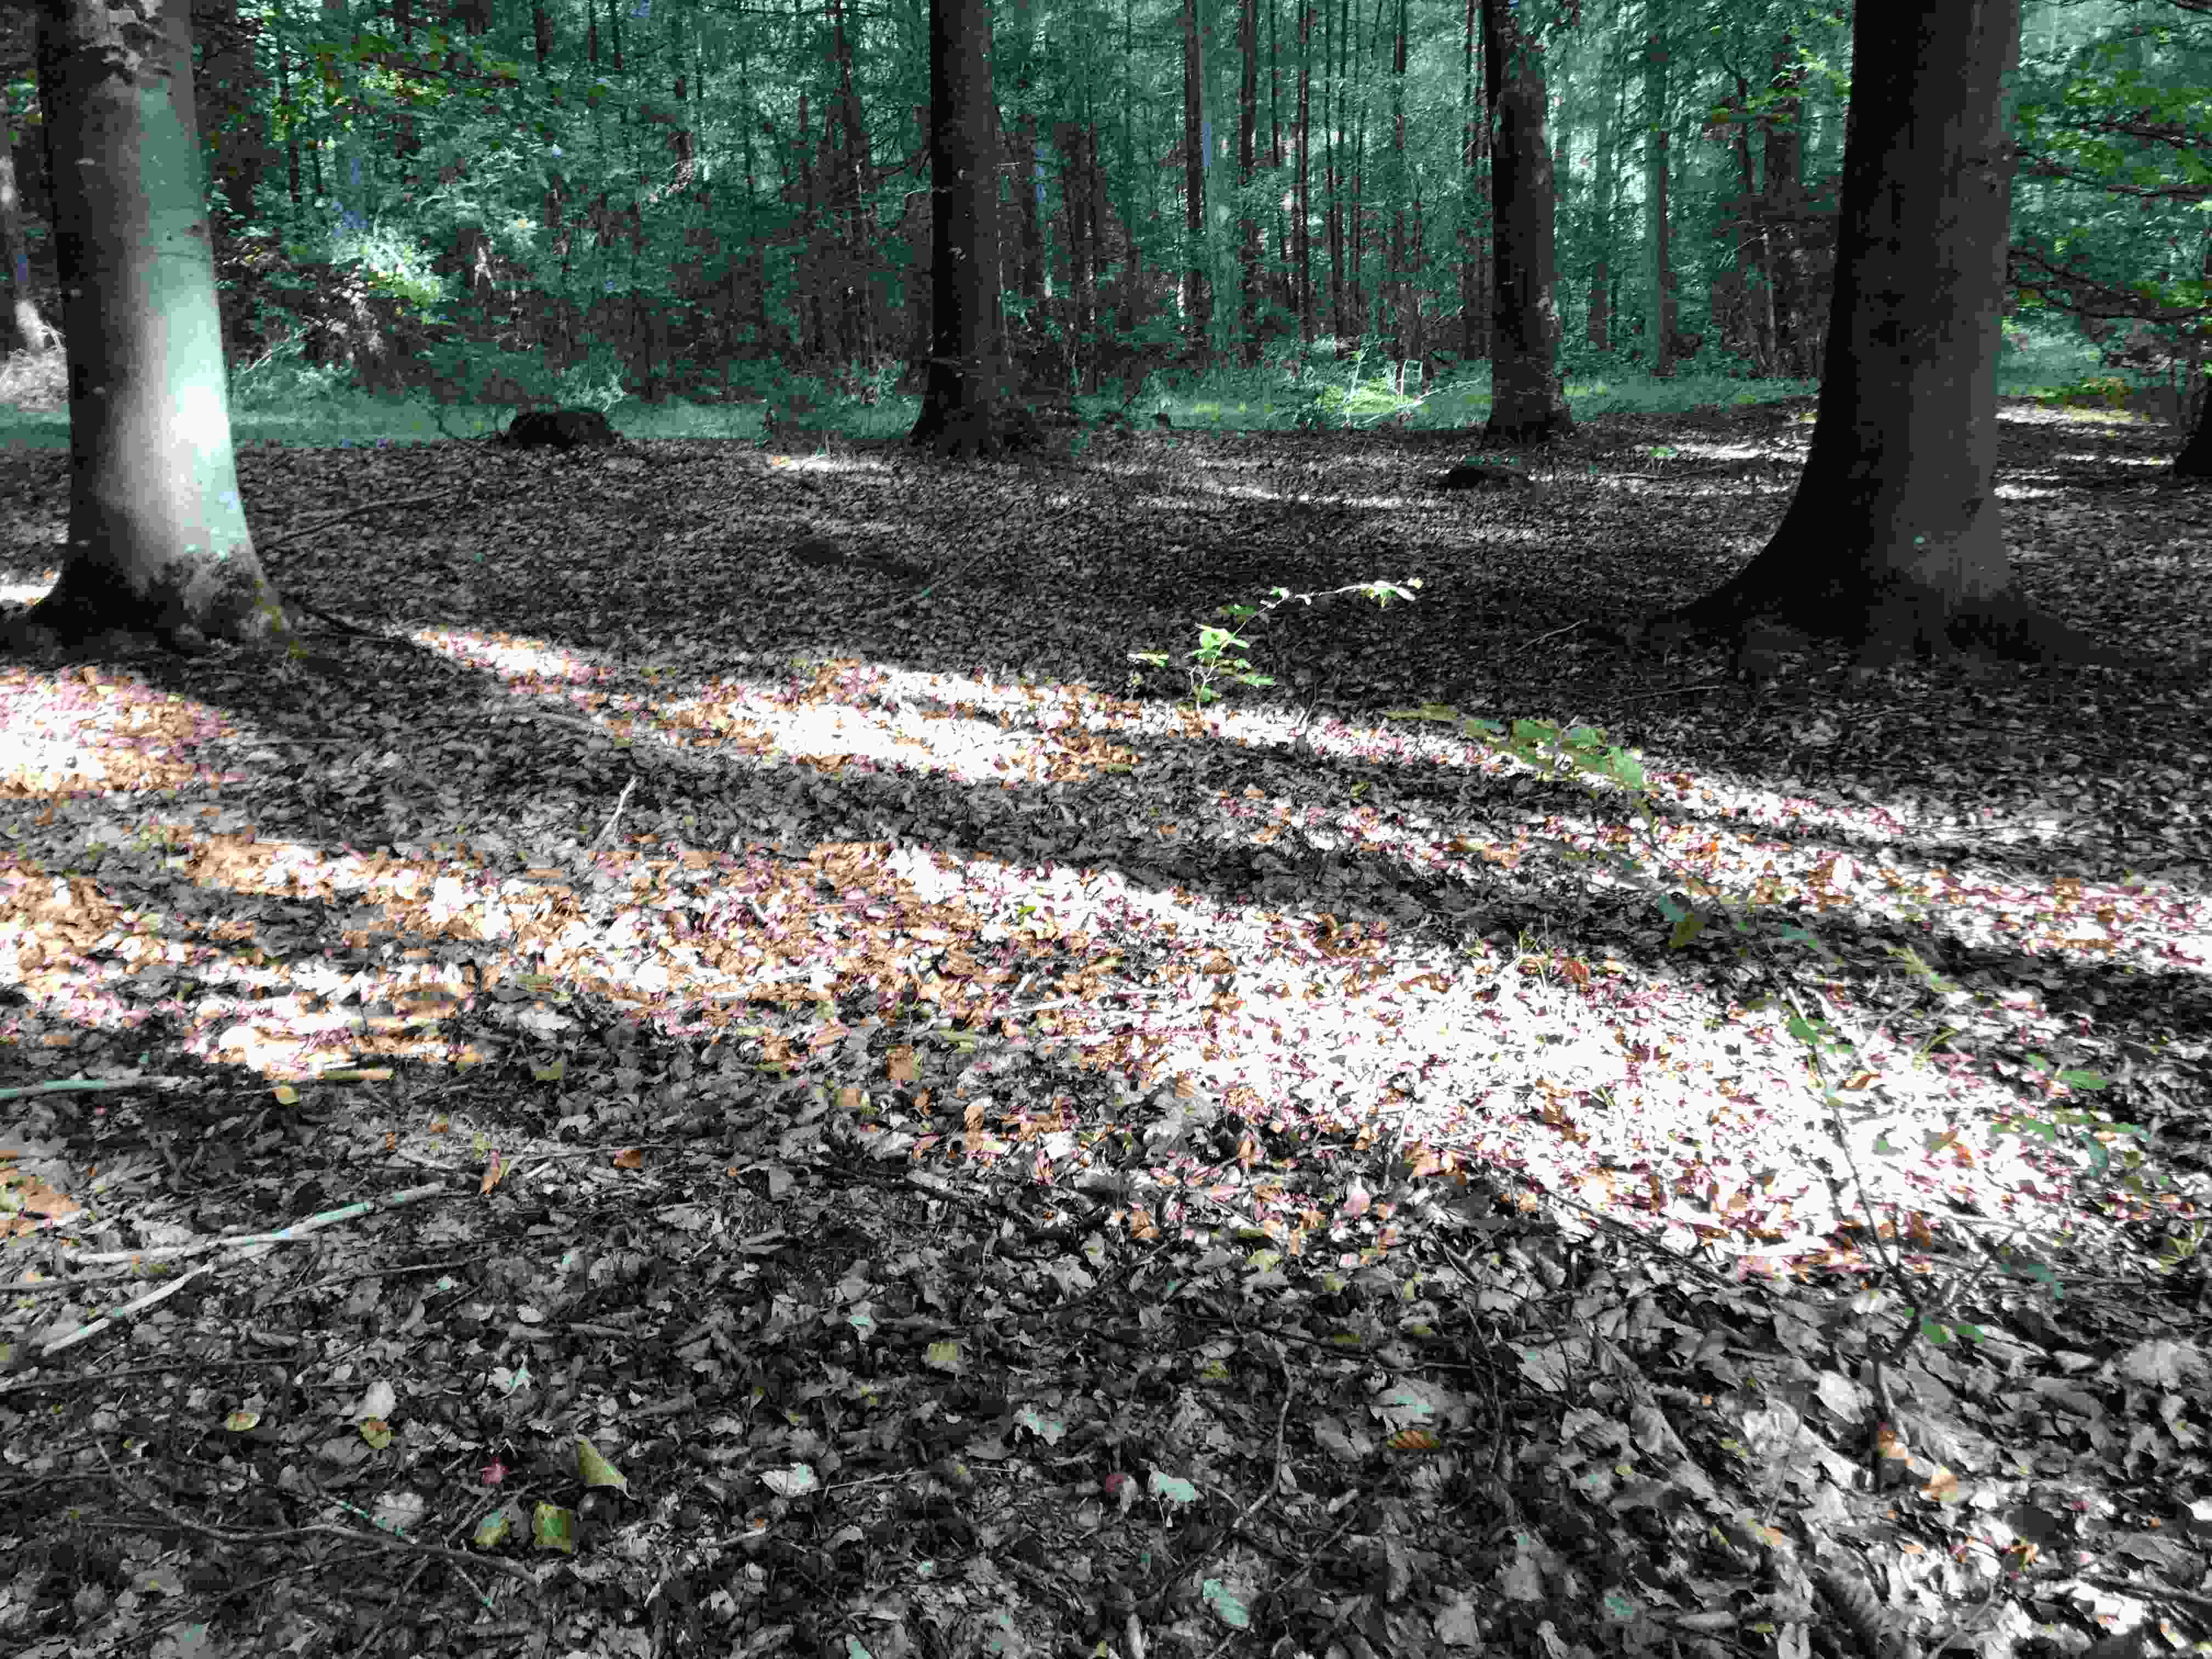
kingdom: Fungi
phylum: Basidiomycota
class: Agaricomycetes
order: Agaricales
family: Tricholomataceae
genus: Tricholoma
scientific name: Tricholoma ustale
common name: sveden ridderhat
